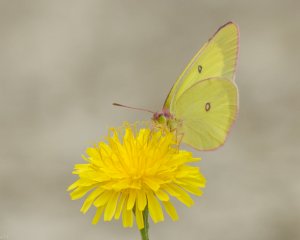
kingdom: Animalia
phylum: Arthropoda
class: Insecta
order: Lepidoptera
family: Pieridae
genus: Colias
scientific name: Colias interior
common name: Pink-edged Sulphur
